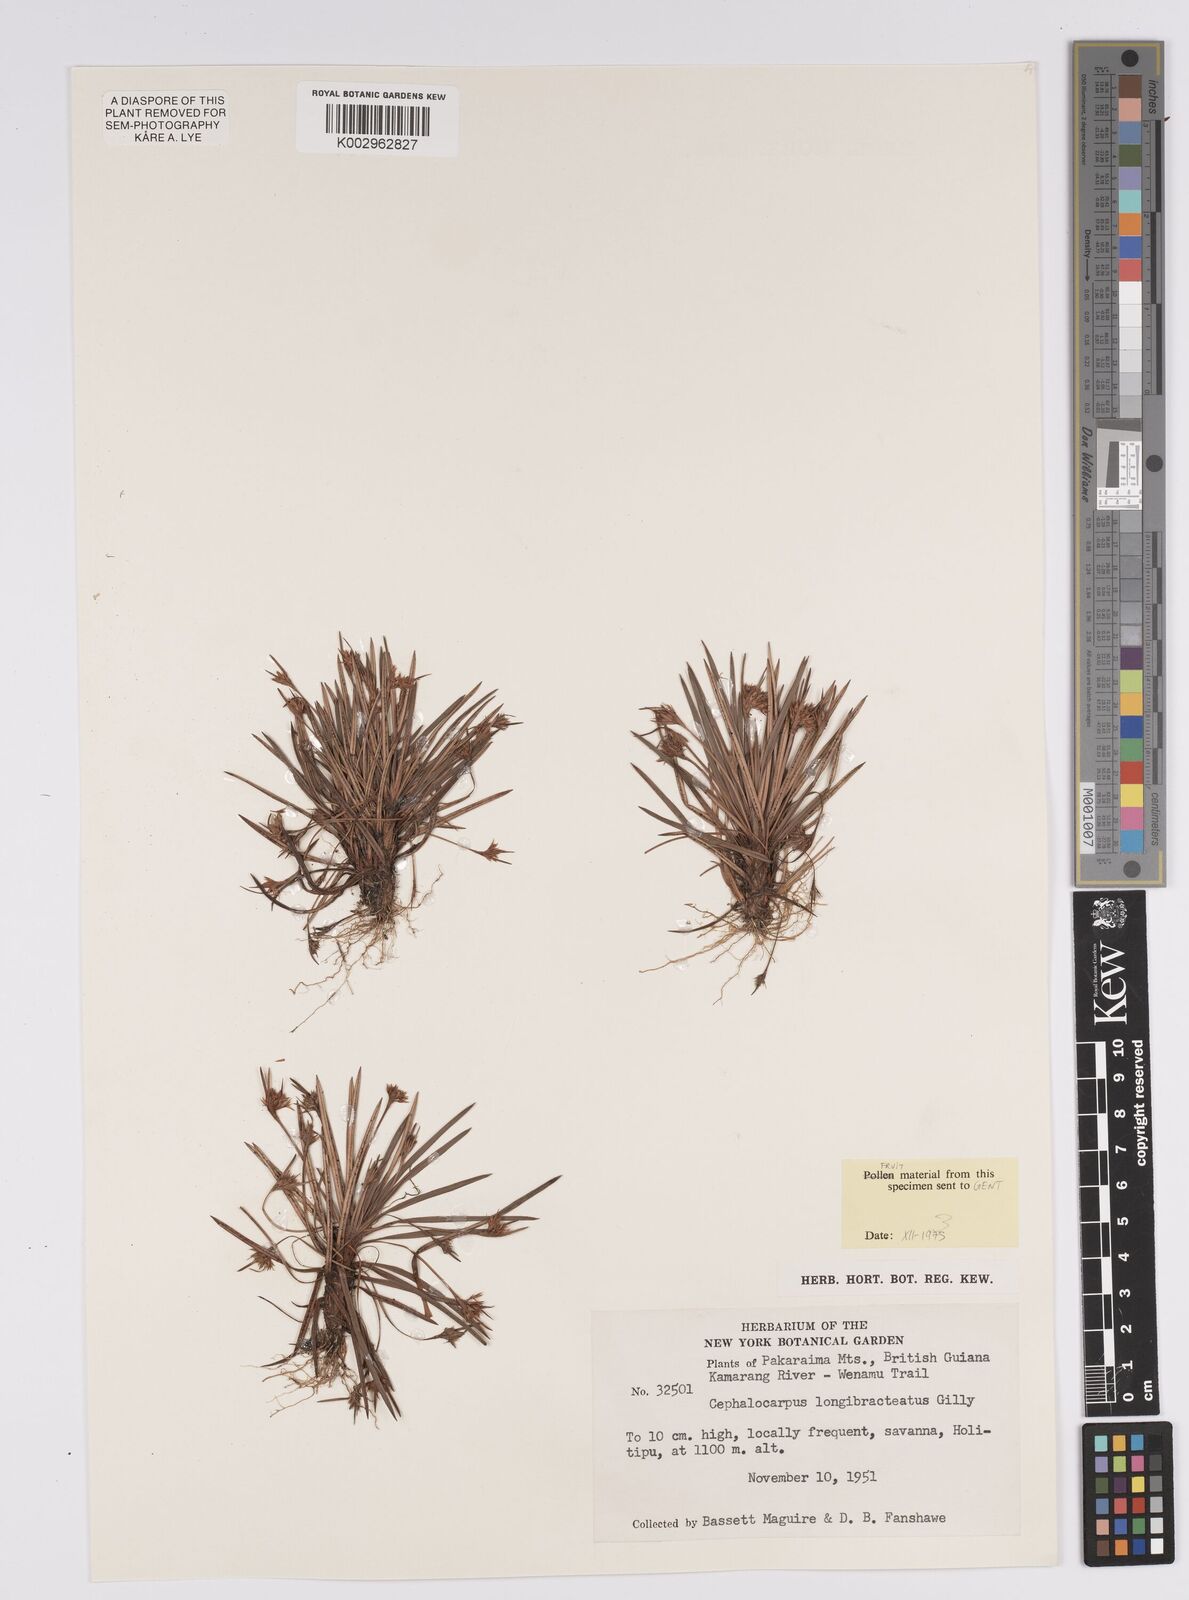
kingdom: Plantae
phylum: Tracheophyta
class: Liliopsida
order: Poales
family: Cyperaceae
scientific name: Cyperaceae
